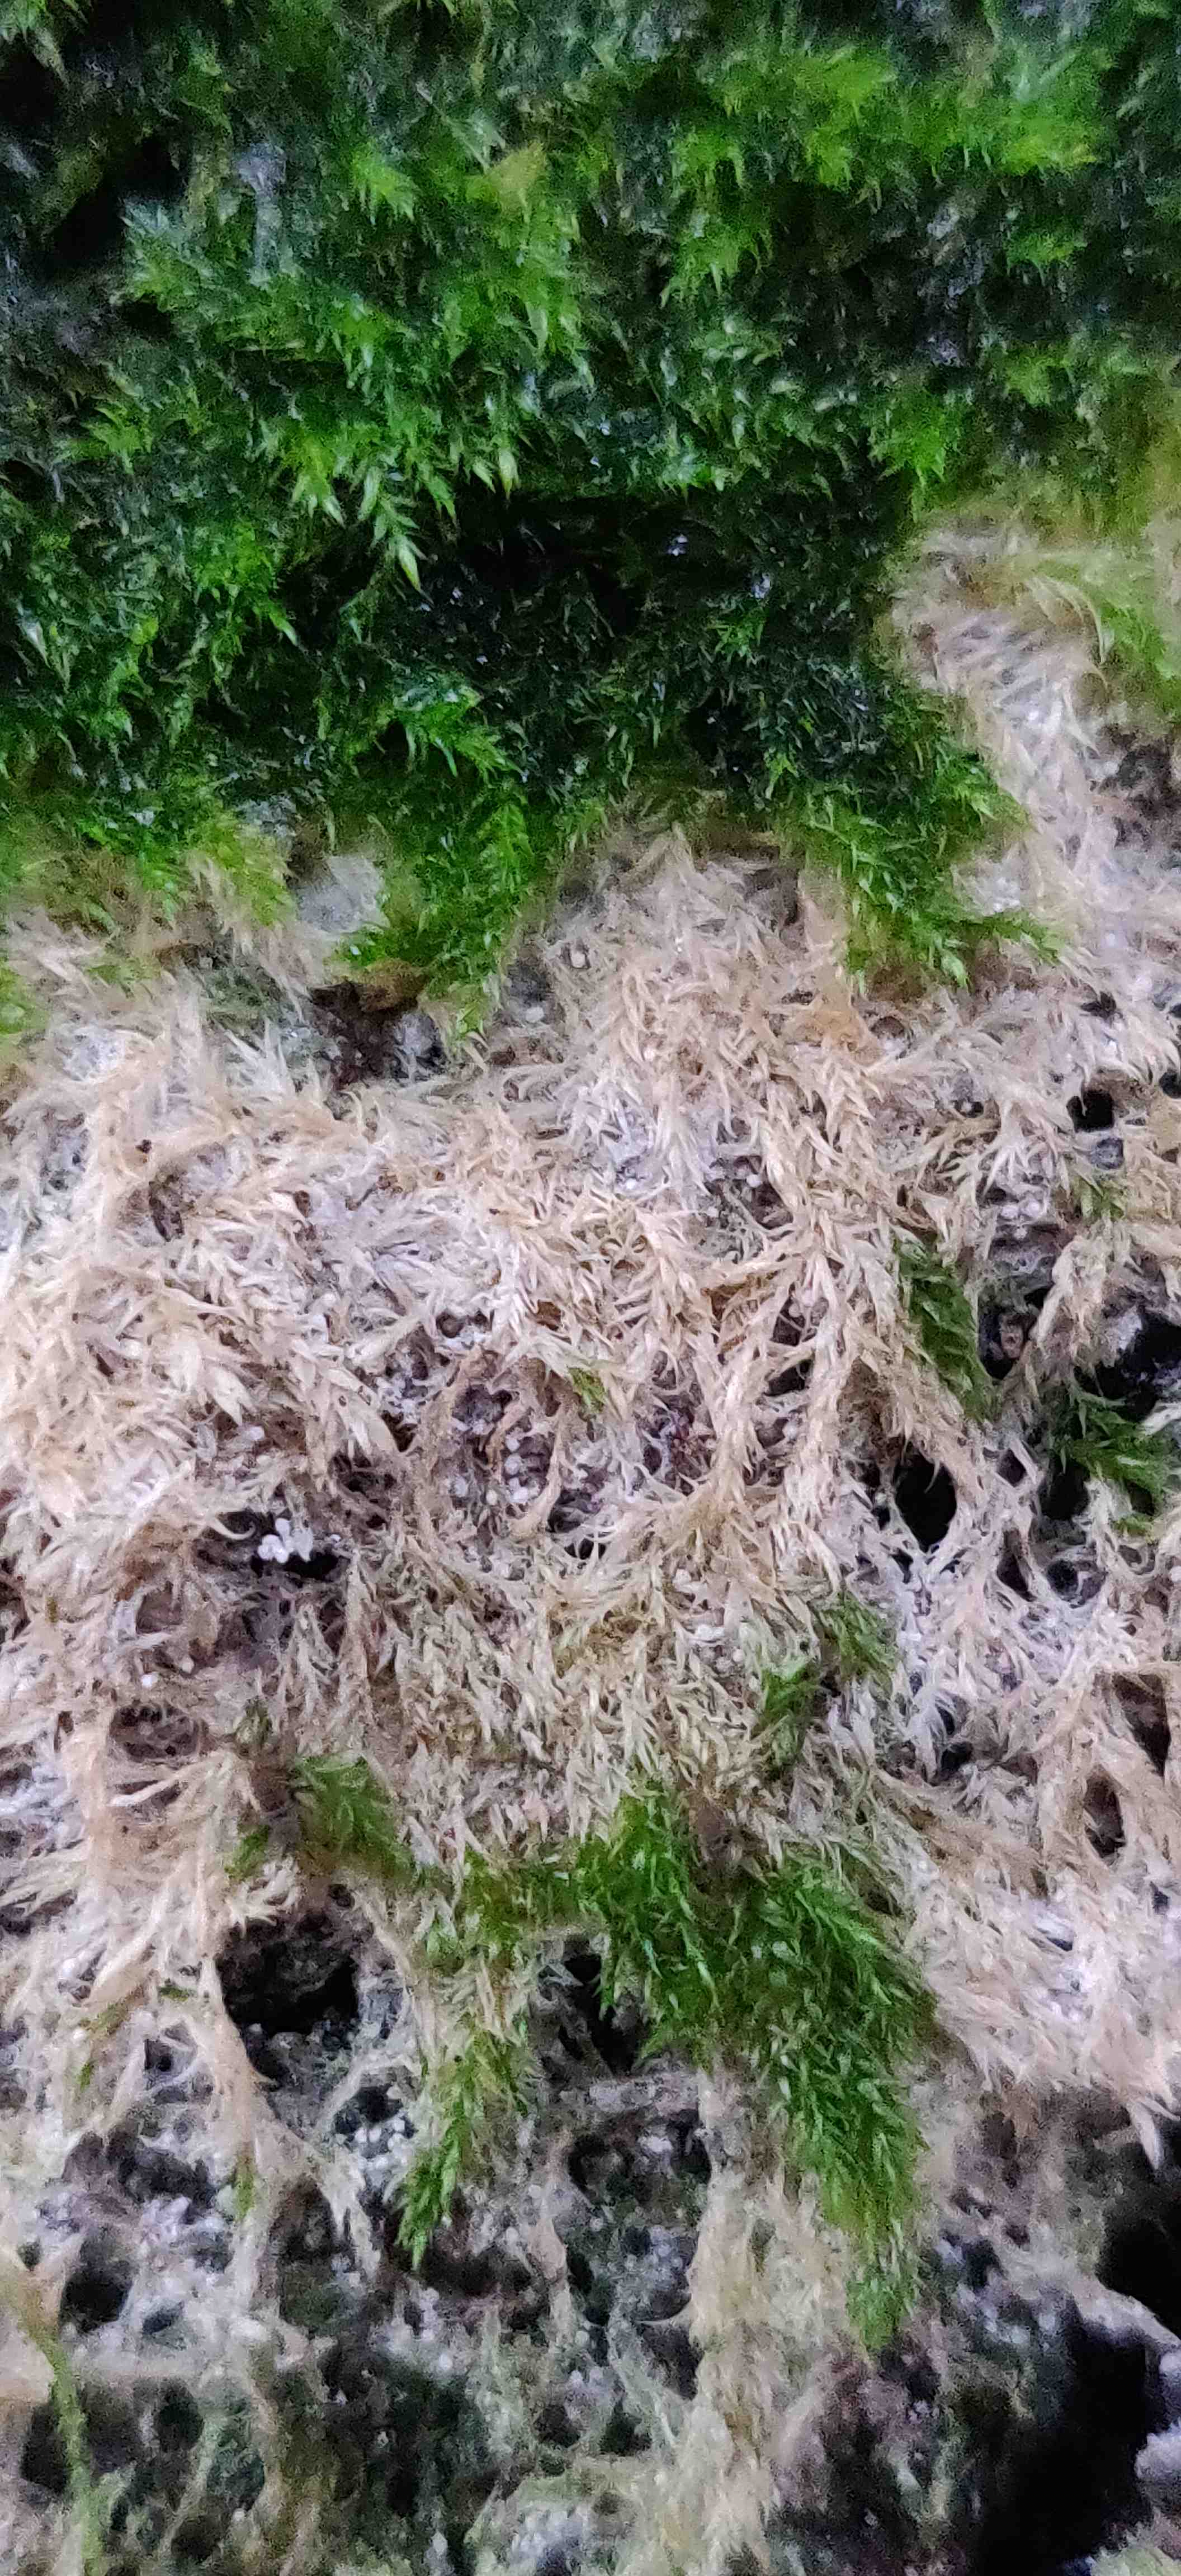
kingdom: Fungi
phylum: Basidiomycota
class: Agaricomycetes
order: Agaricales
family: Chromocyphellaceae
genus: Chromocyphella
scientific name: Chromocyphella muscicola
